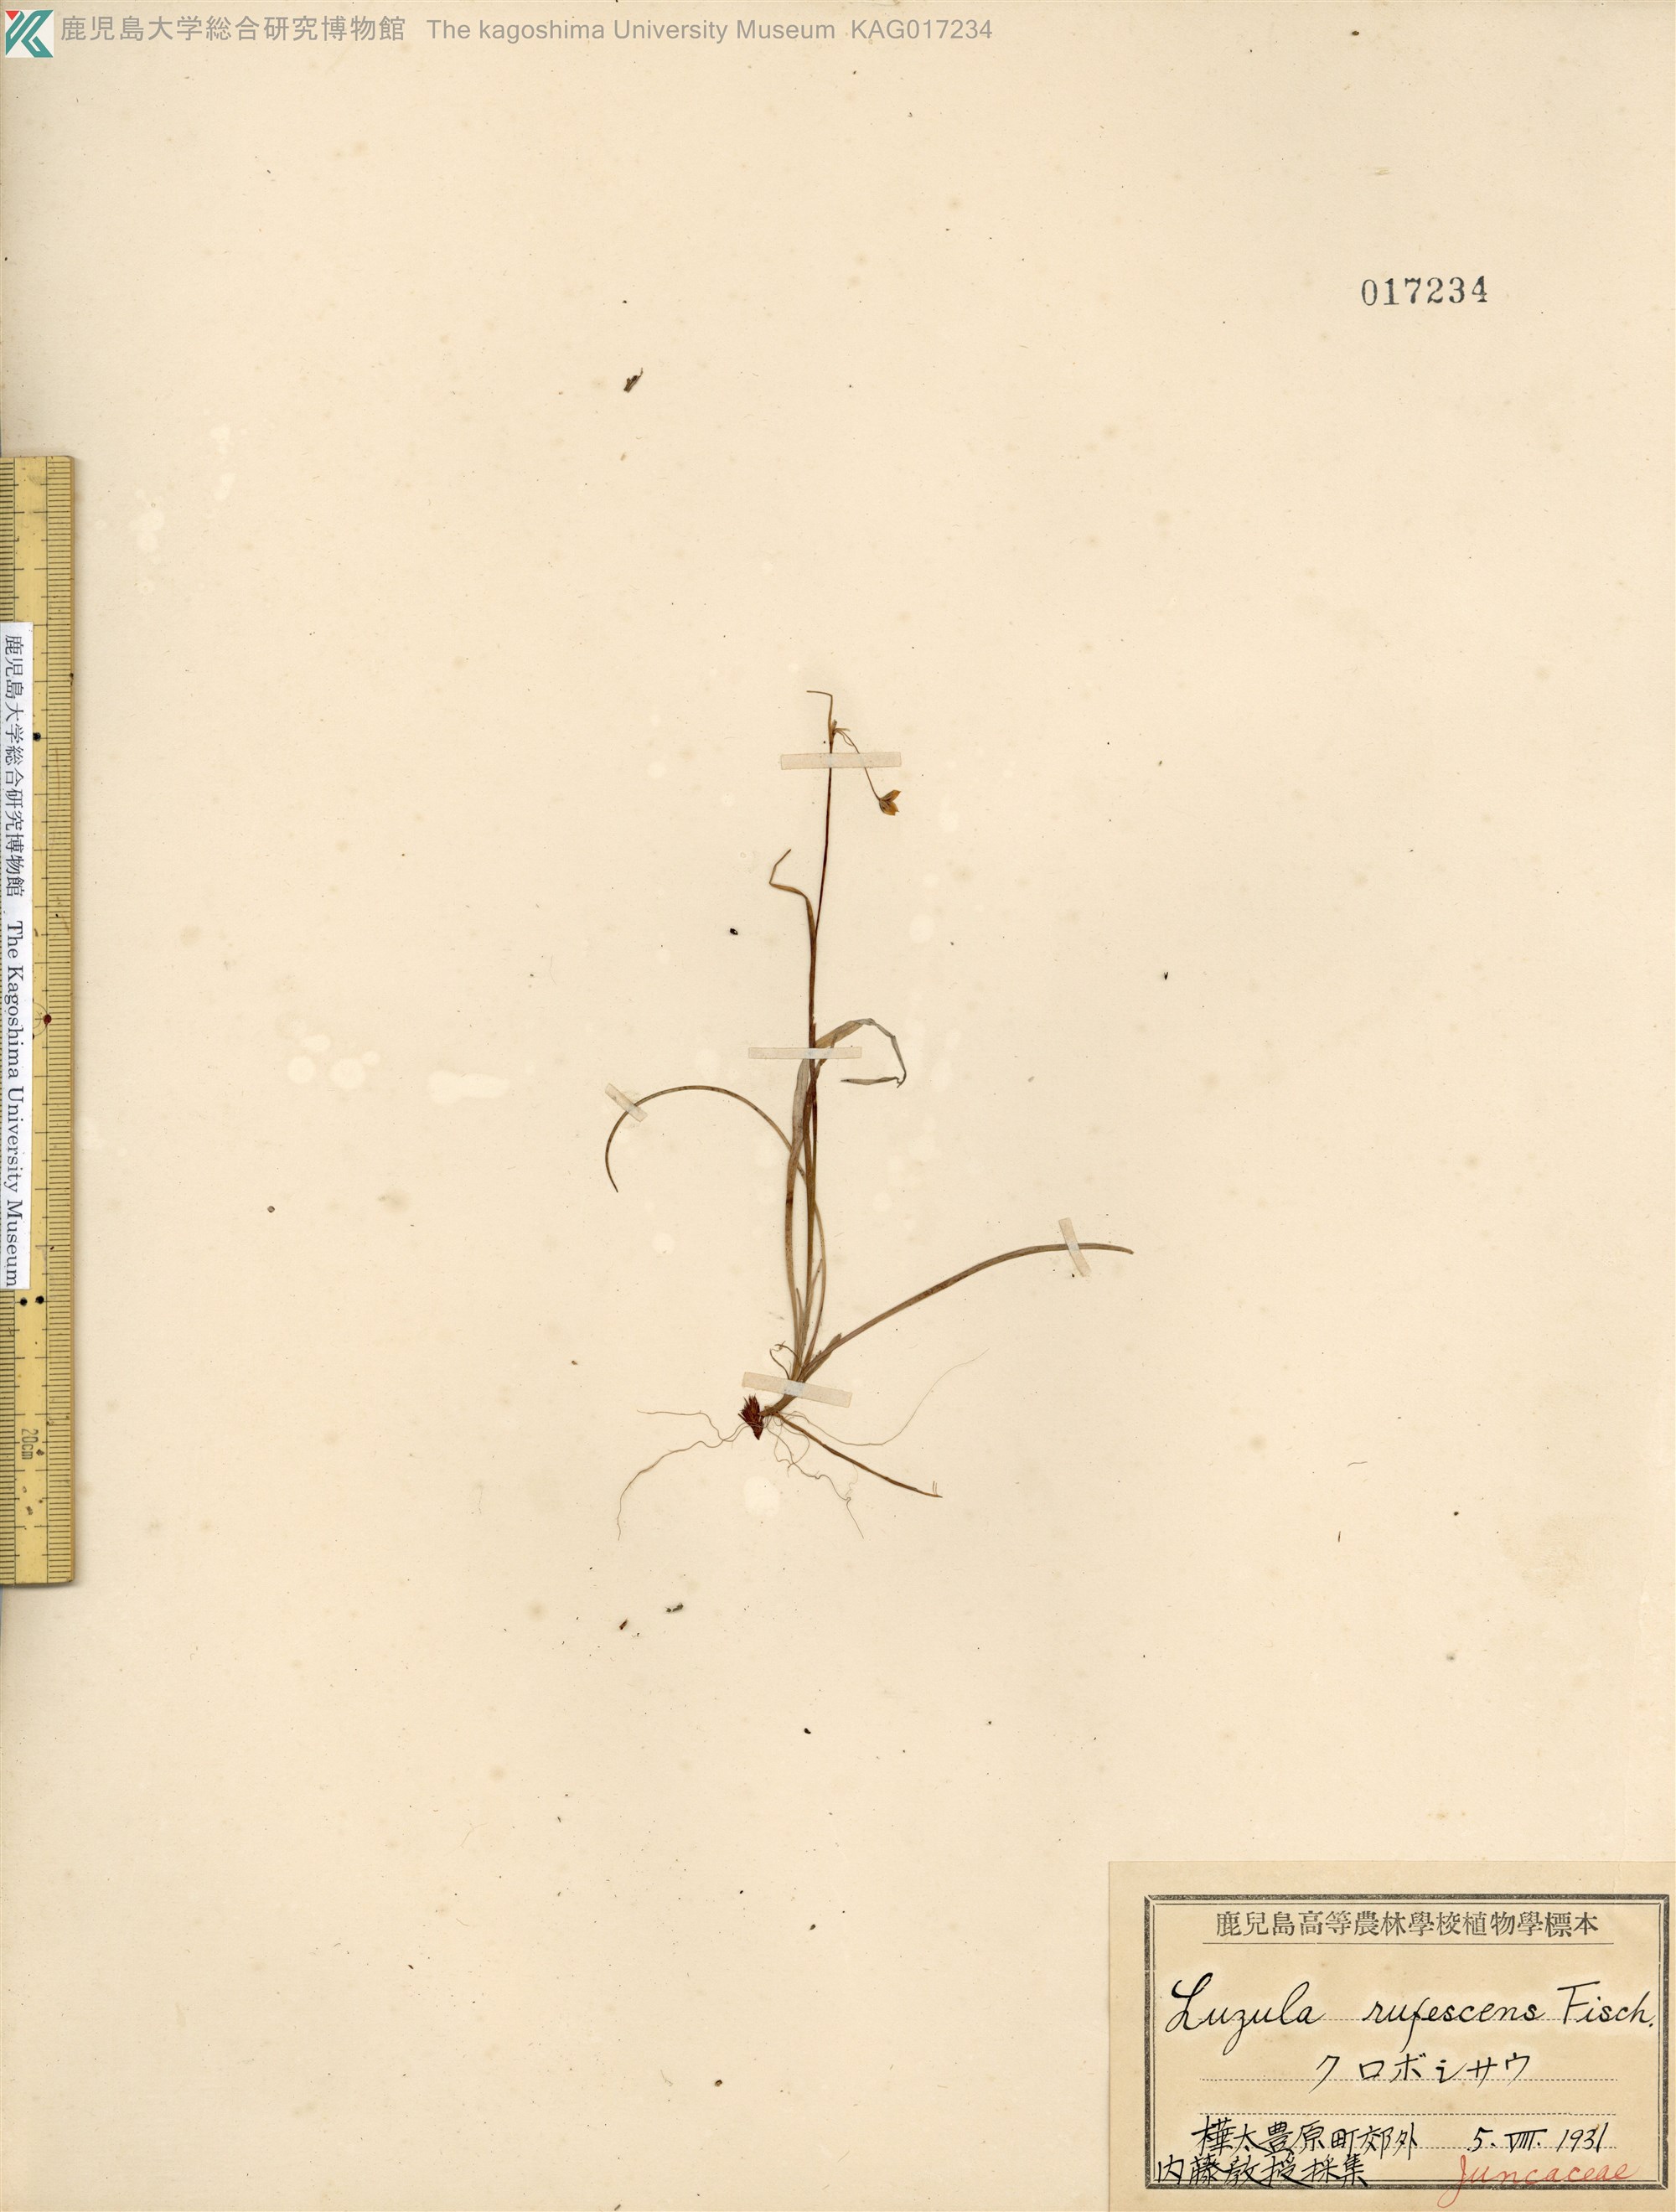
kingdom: Plantae
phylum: Tracheophyta
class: Liliopsida
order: Poales
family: Juncaceae
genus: Luzula
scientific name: Luzula rufescens
